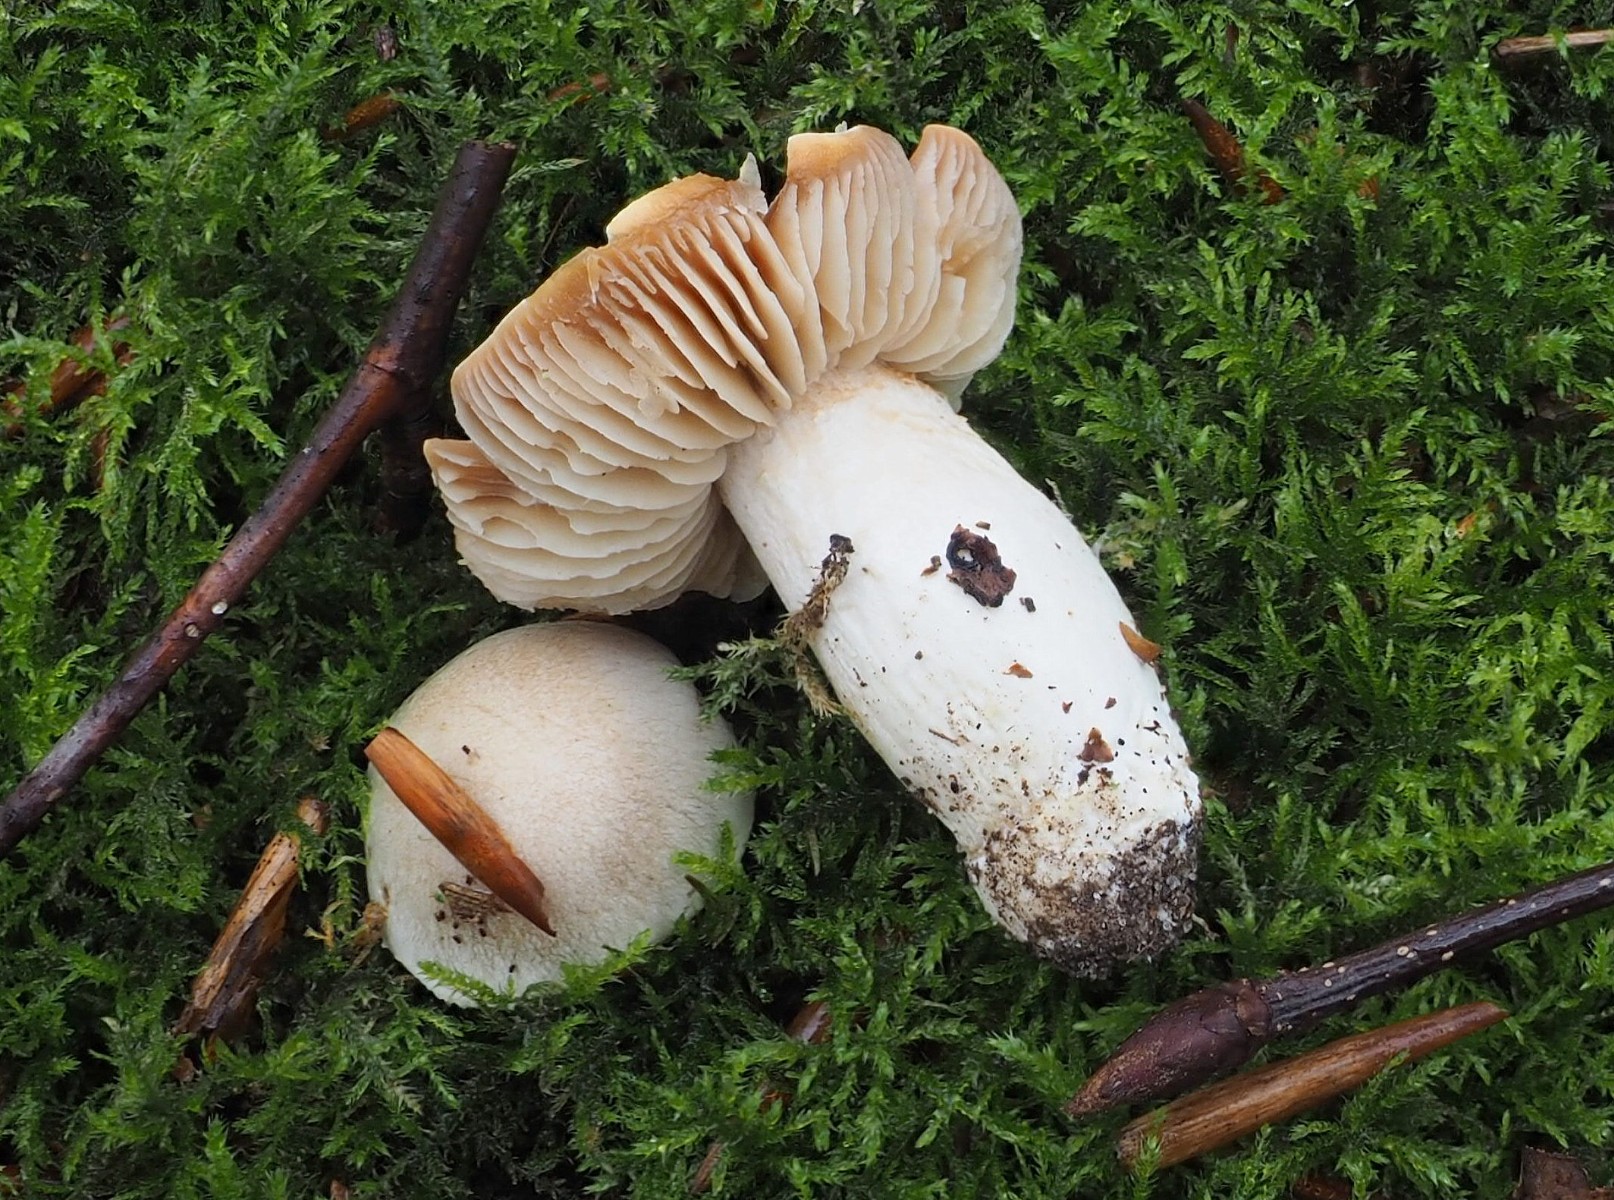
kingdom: Fungi
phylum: Basidiomycota
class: Agaricomycetes
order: Agaricales
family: Cortinariaceae
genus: Thaxterogaster
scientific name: Thaxterogaster alboamarescens
